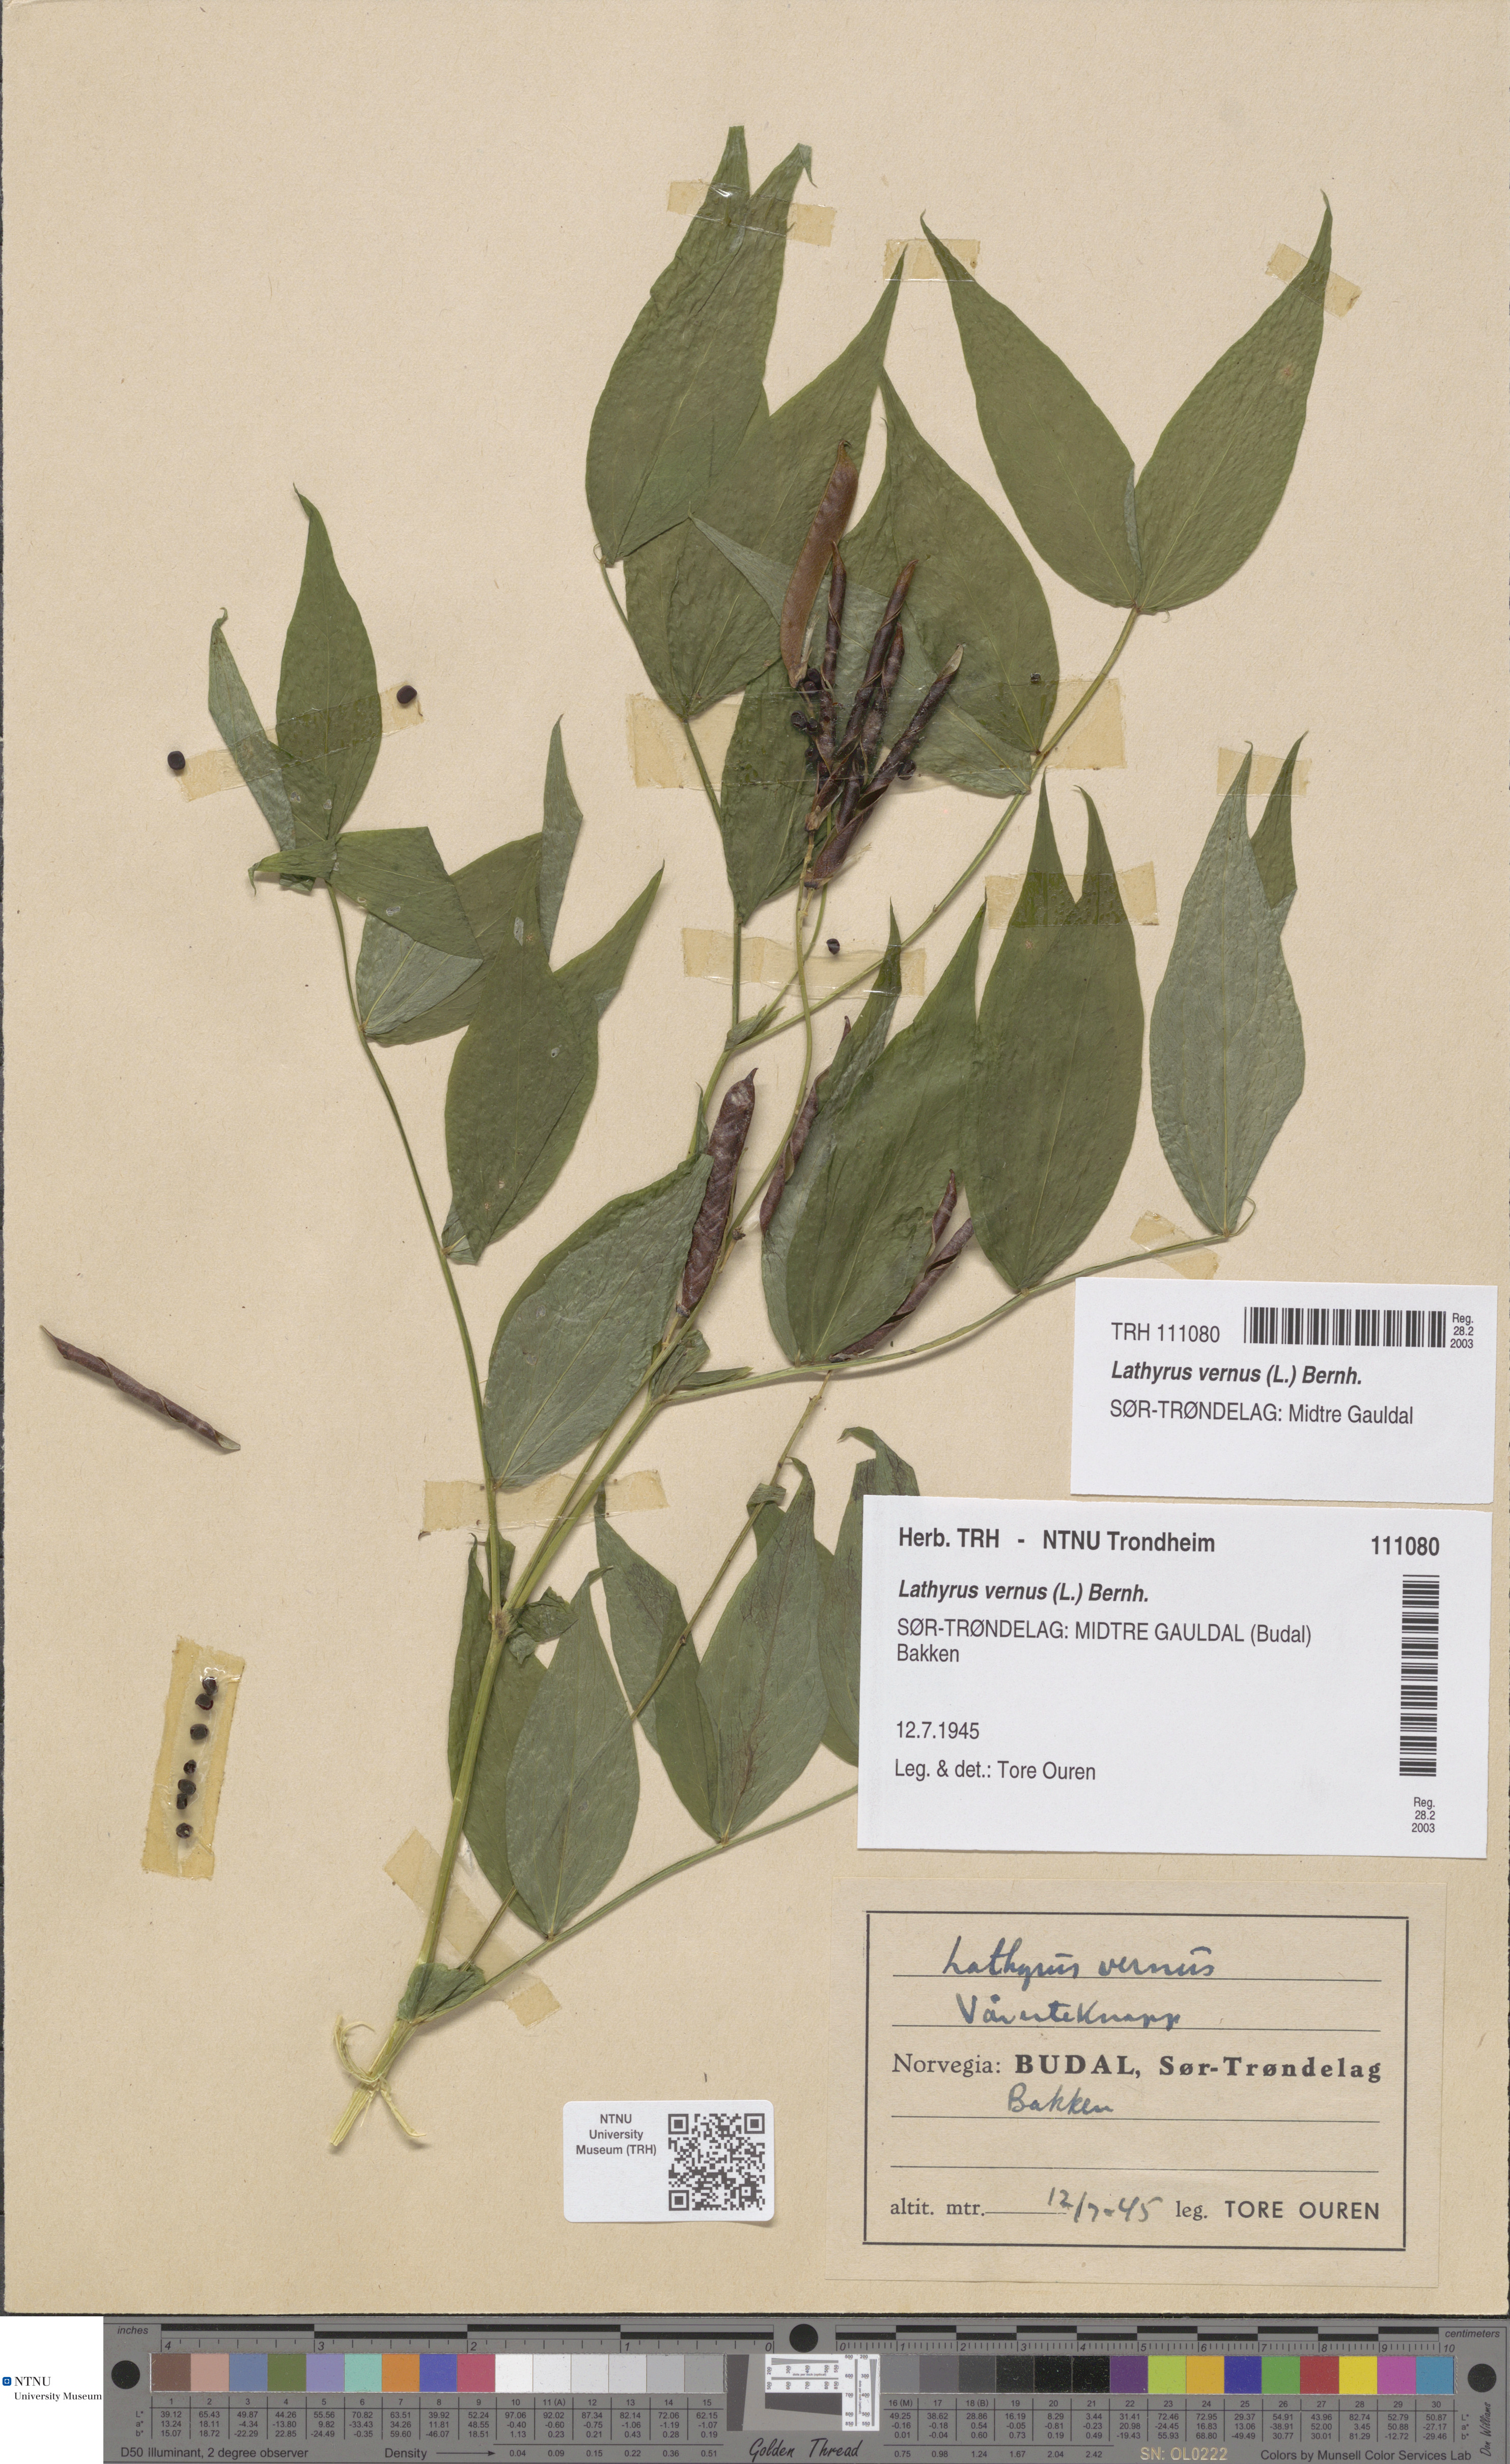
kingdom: Plantae
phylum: Tracheophyta
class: Magnoliopsida
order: Fabales
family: Fabaceae
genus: Lathyrus
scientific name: Lathyrus vernus
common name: Spring pea
